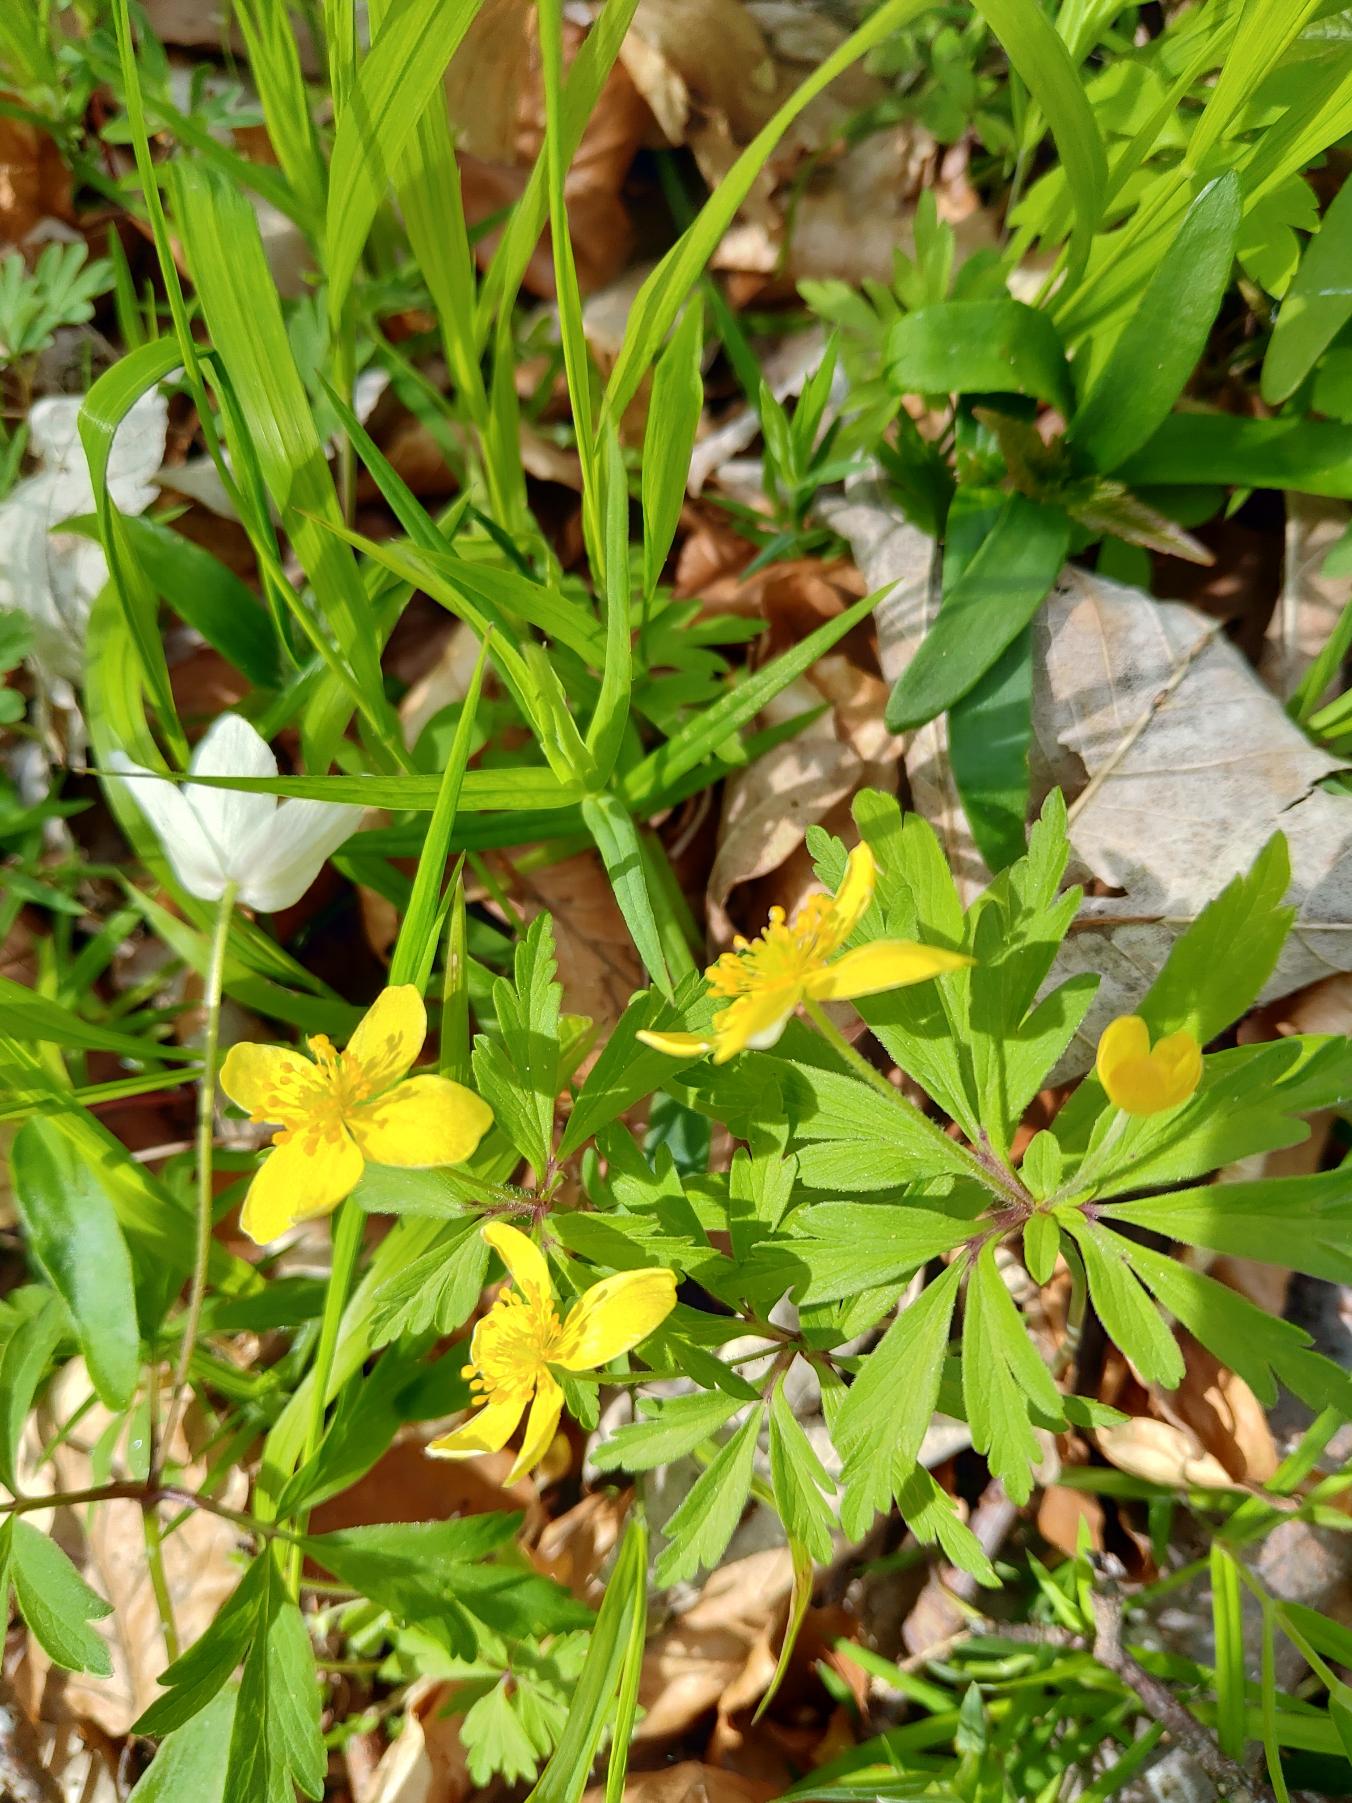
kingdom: Plantae
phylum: Tracheophyta
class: Magnoliopsida
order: Ranunculales
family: Ranunculaceae
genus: Anemone
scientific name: Anemone ranunculoides
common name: Gul anemone
